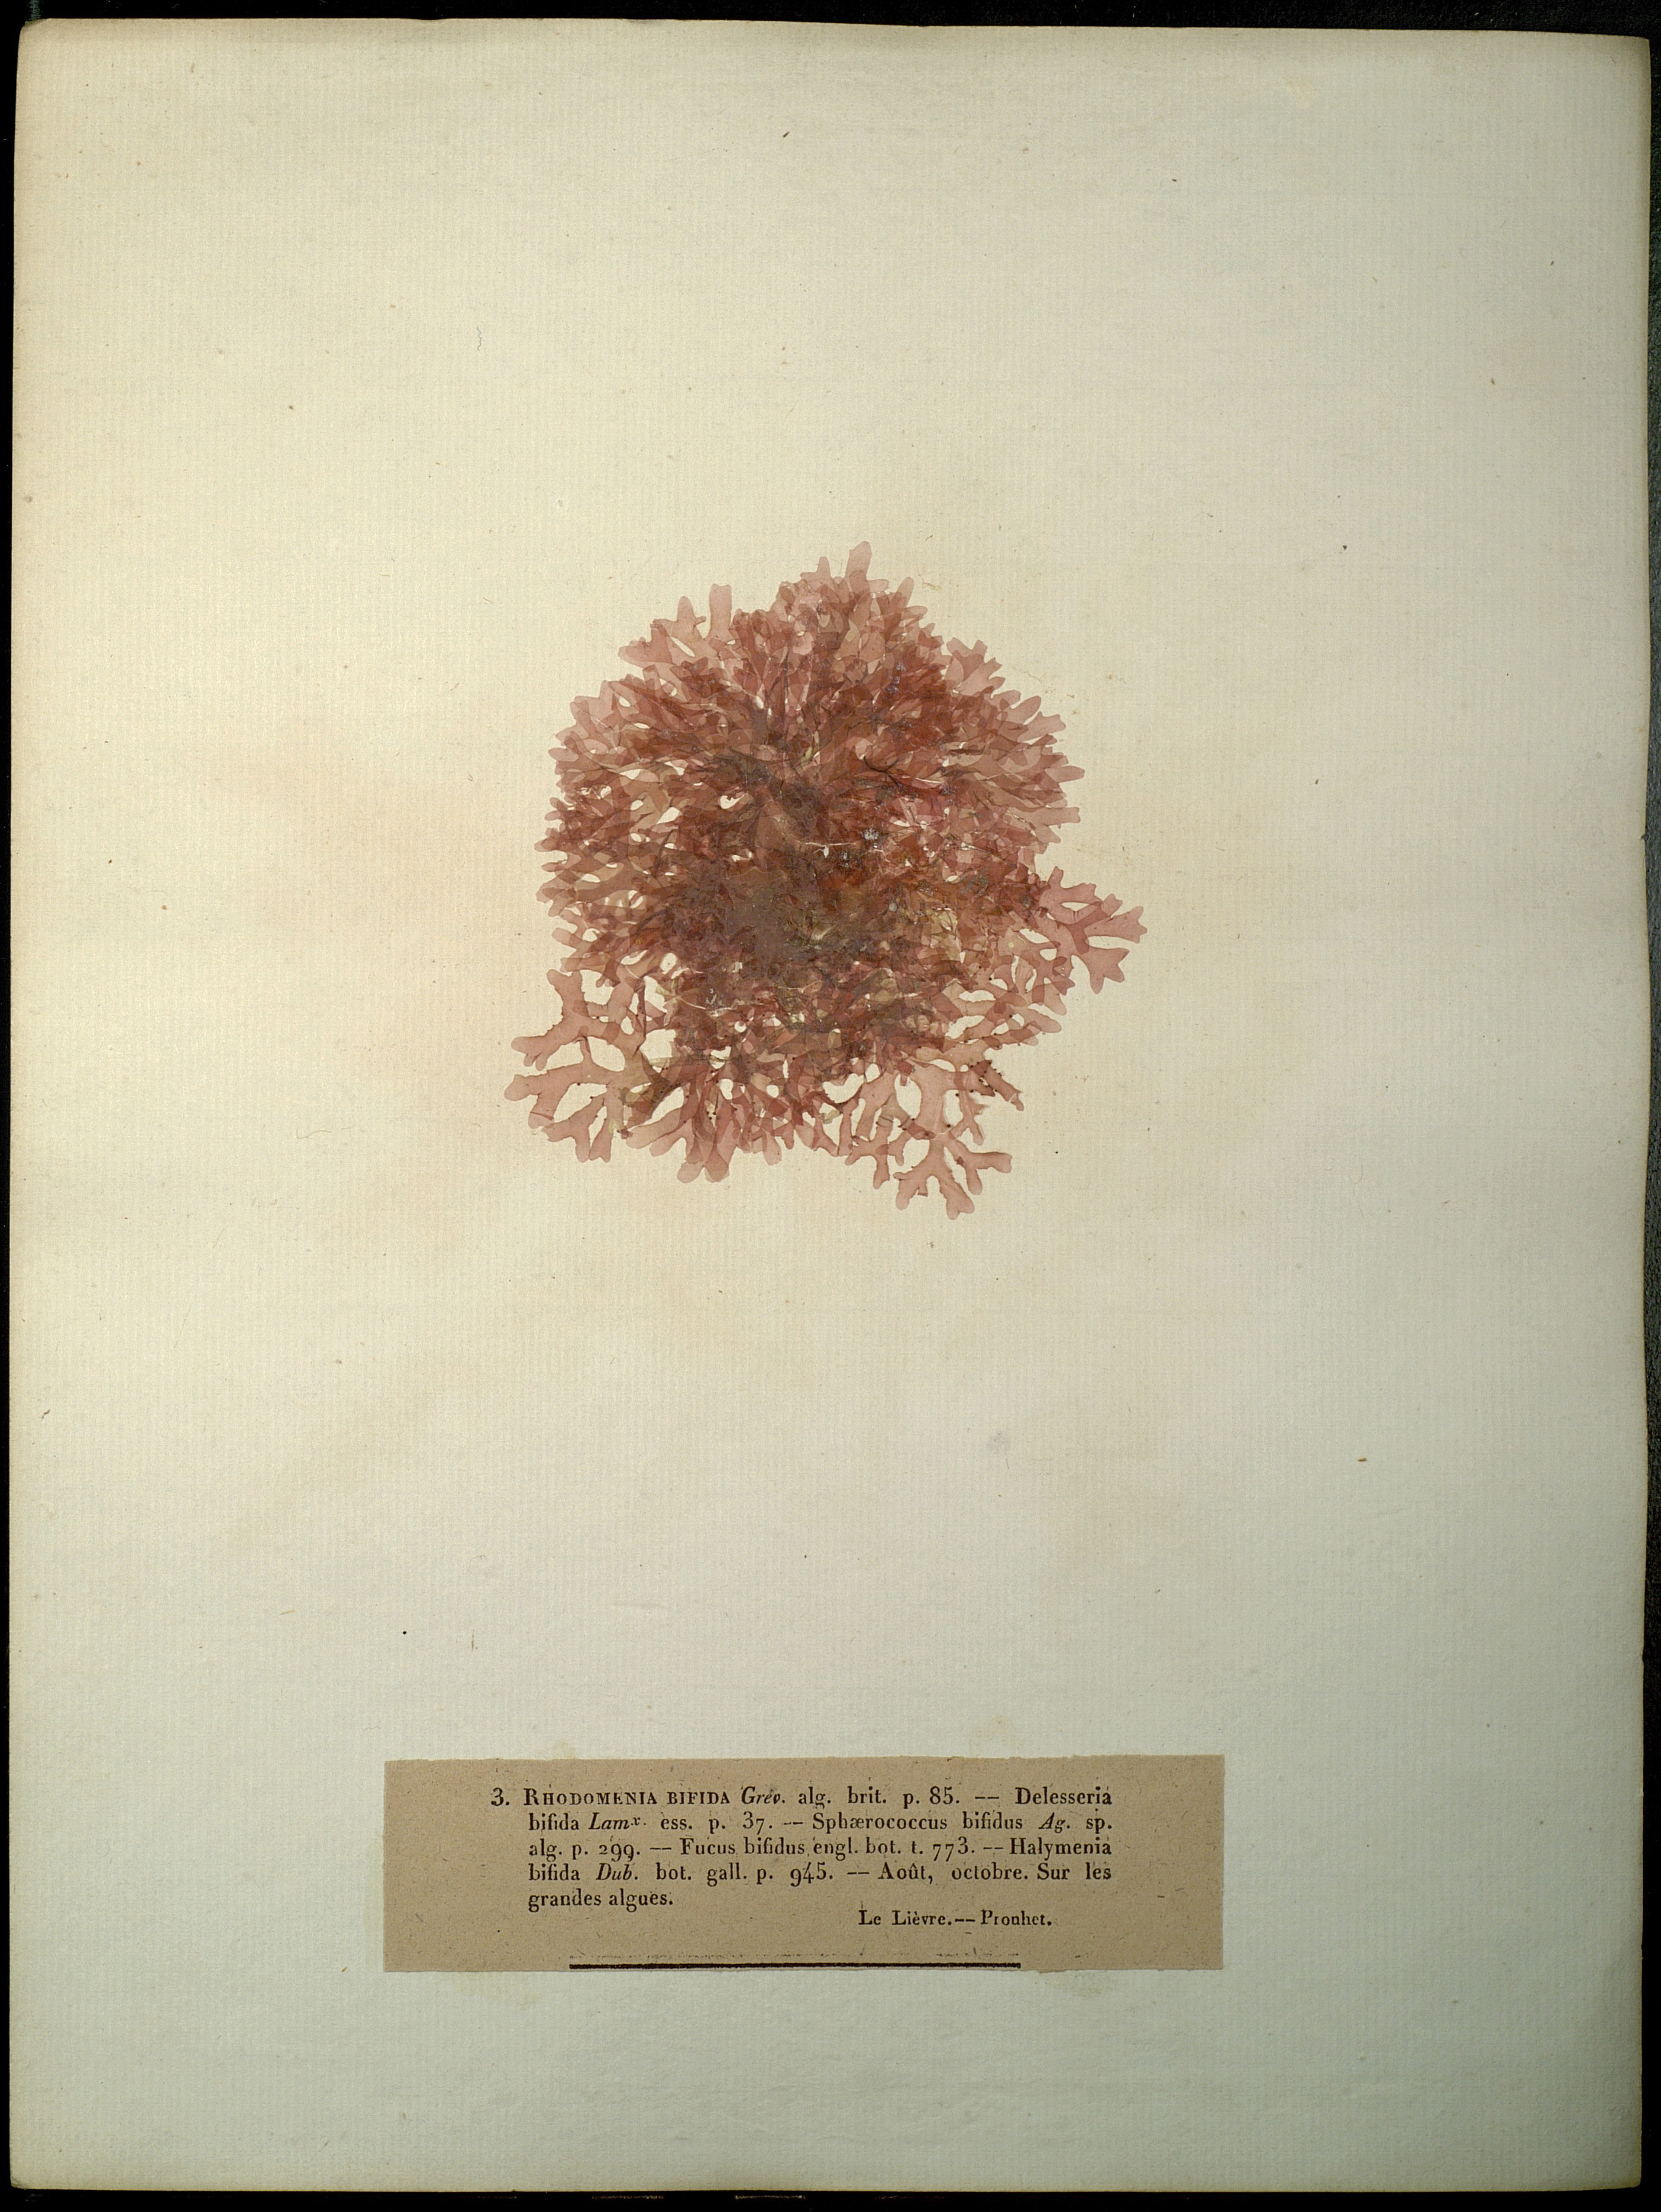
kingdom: Plantae
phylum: Rhodophyta
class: Florideophyceae
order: Gigartinales
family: Cystocloniaceae
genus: Rhodophyllis
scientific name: Rhodophyllis divaricata
